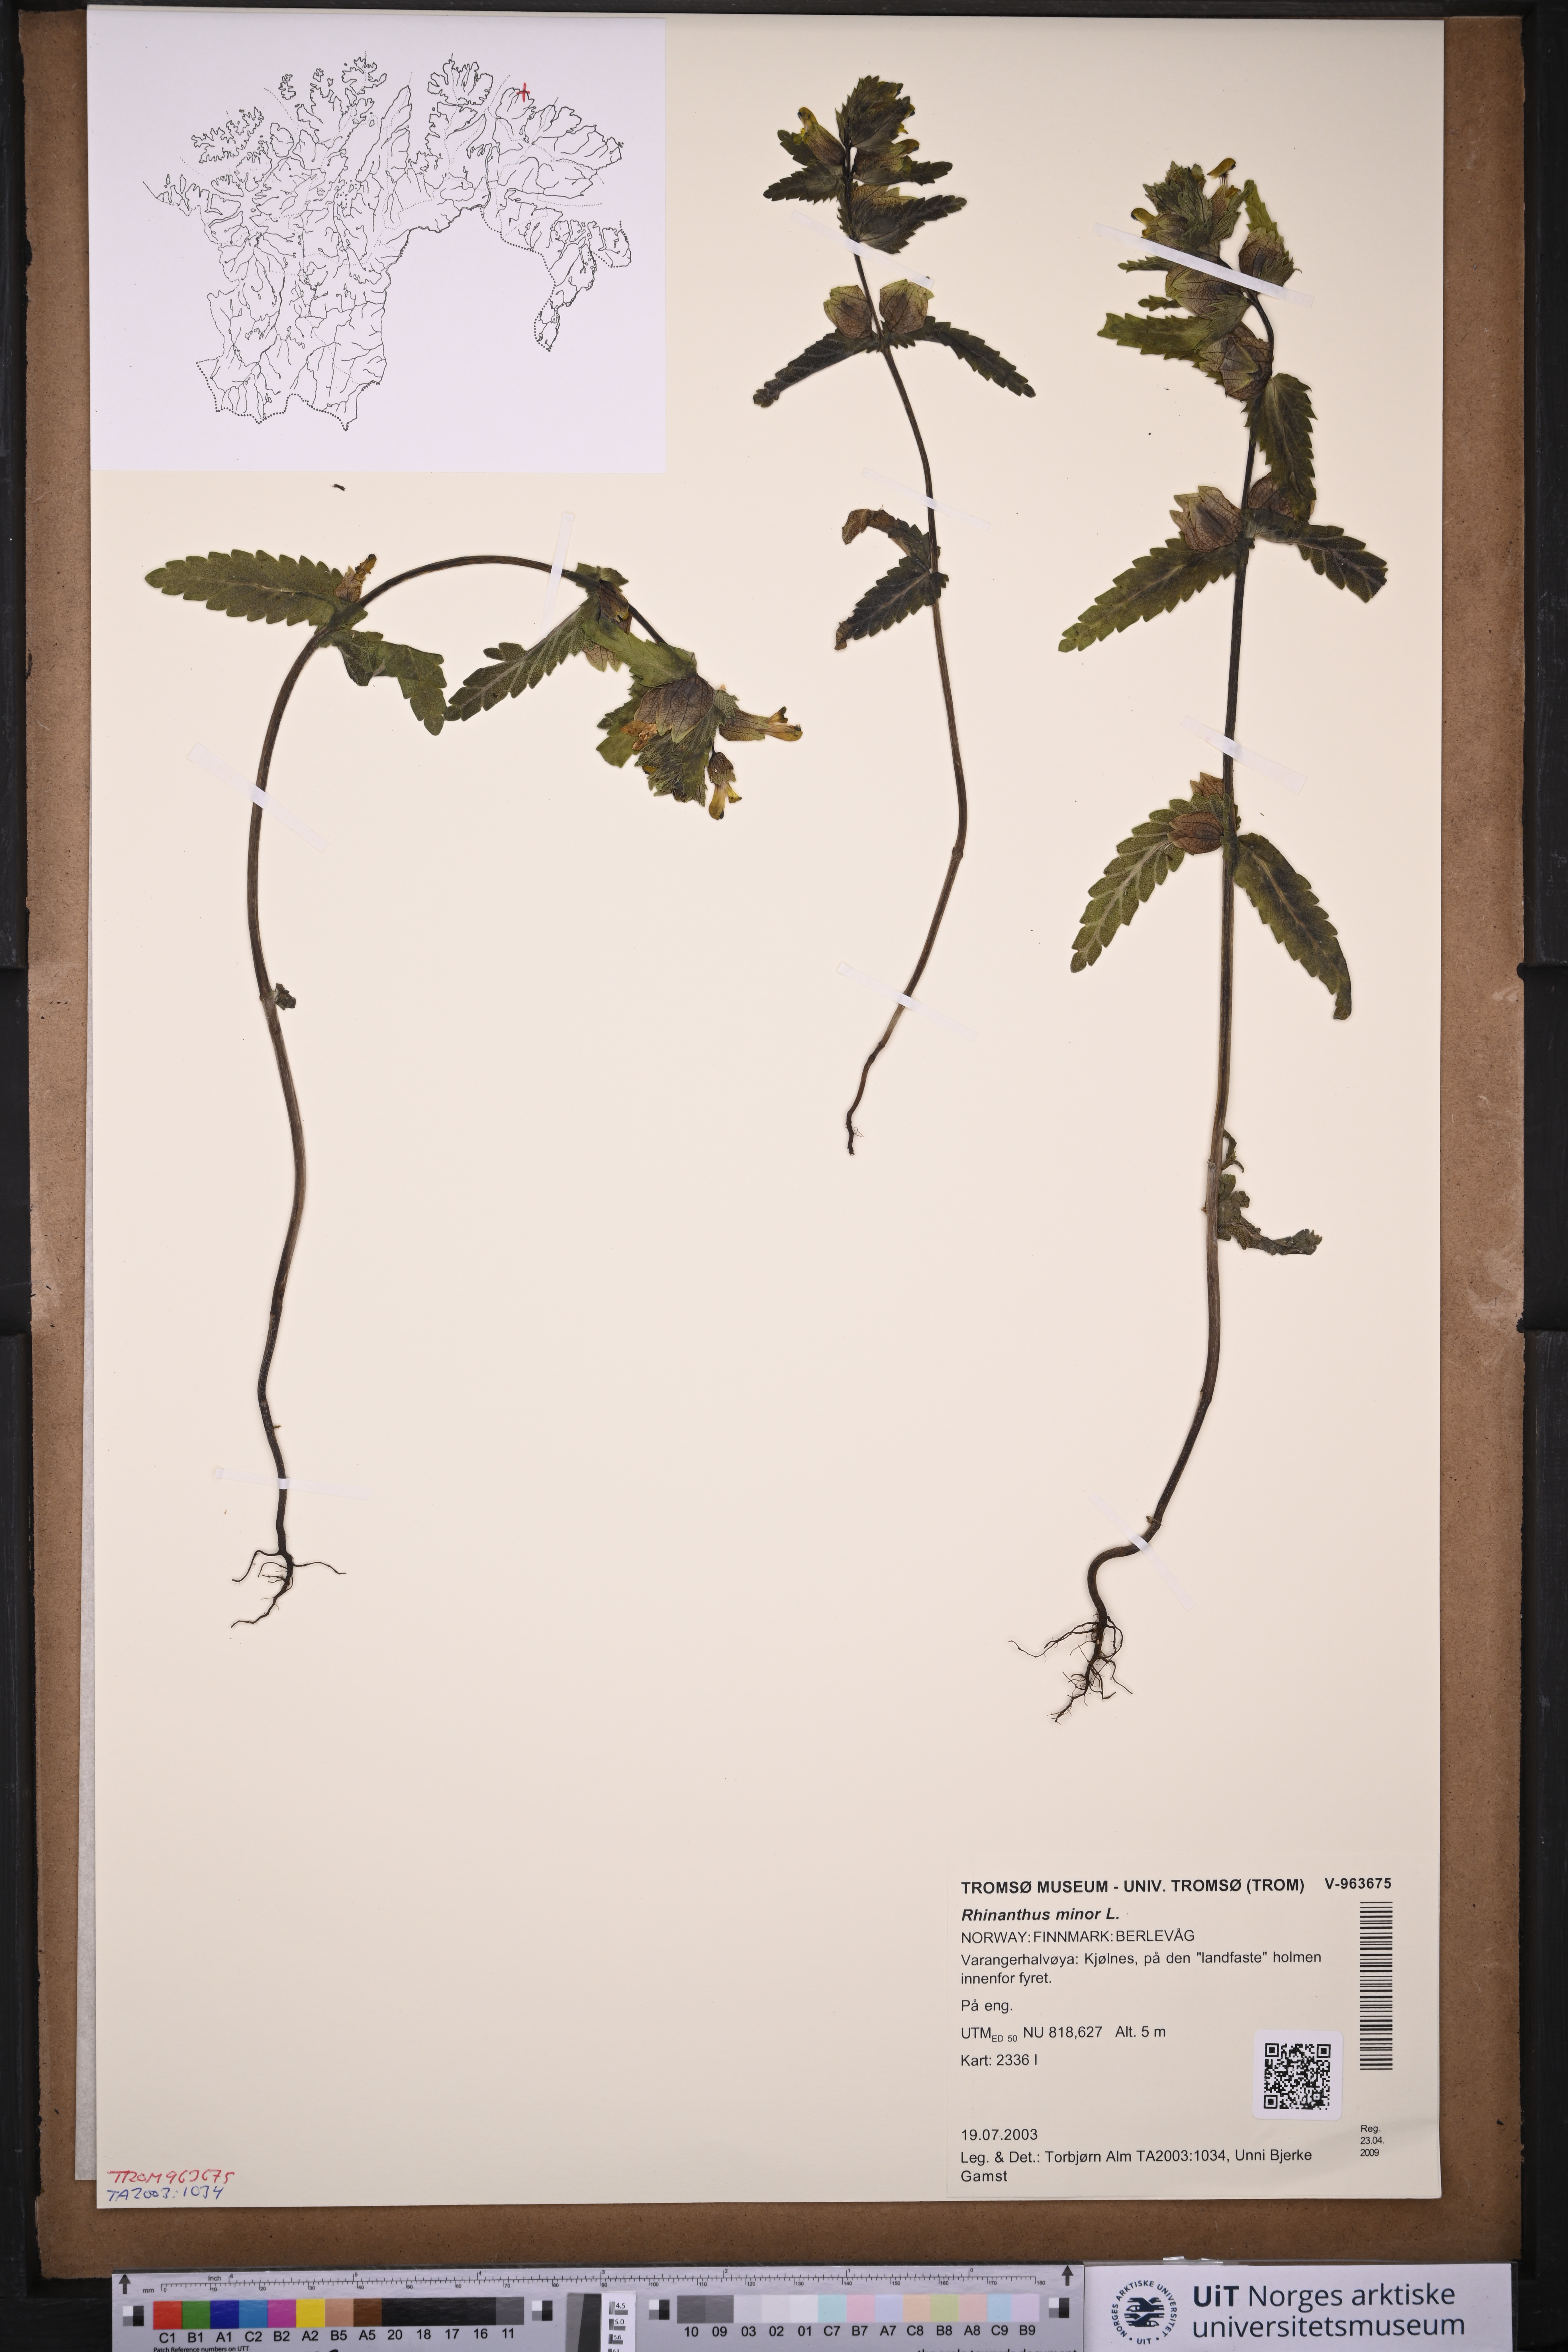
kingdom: Plantae
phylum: Tracheophyta
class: Magnoliopsida
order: Lamiales
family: Orobanchaceae
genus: Rhinanthus
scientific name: Rhinanthus minor
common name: Yellow-rattle
